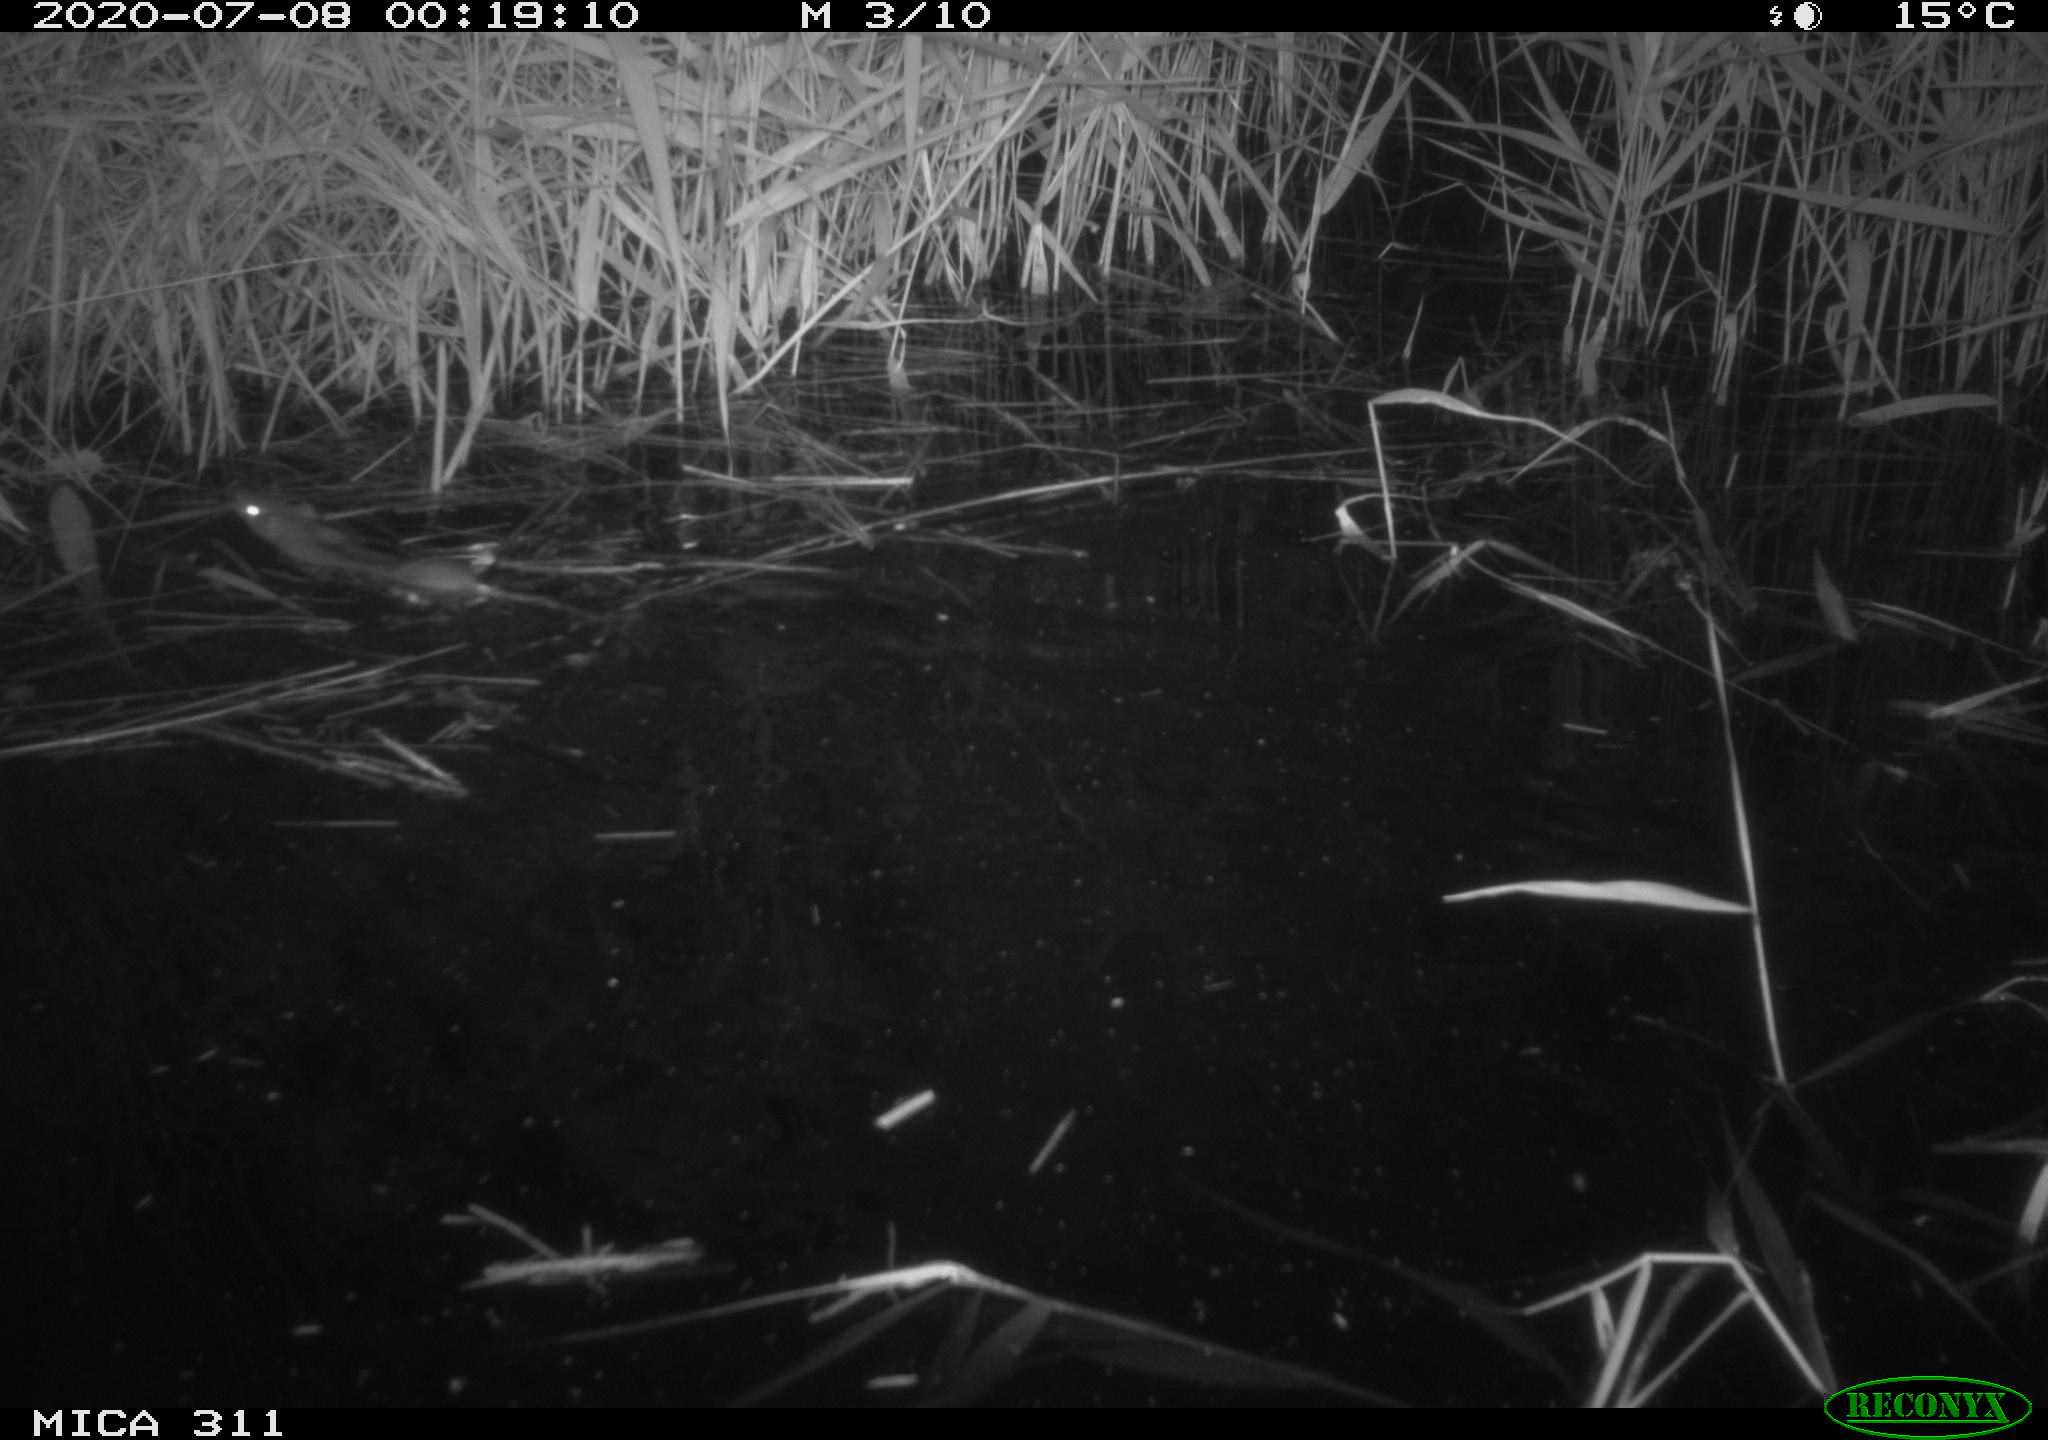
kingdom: Animalia
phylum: Chordata
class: Mammalia
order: Rodentia
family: Muridae
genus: Rattus
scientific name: Rattus norvegicus
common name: Brown rat
